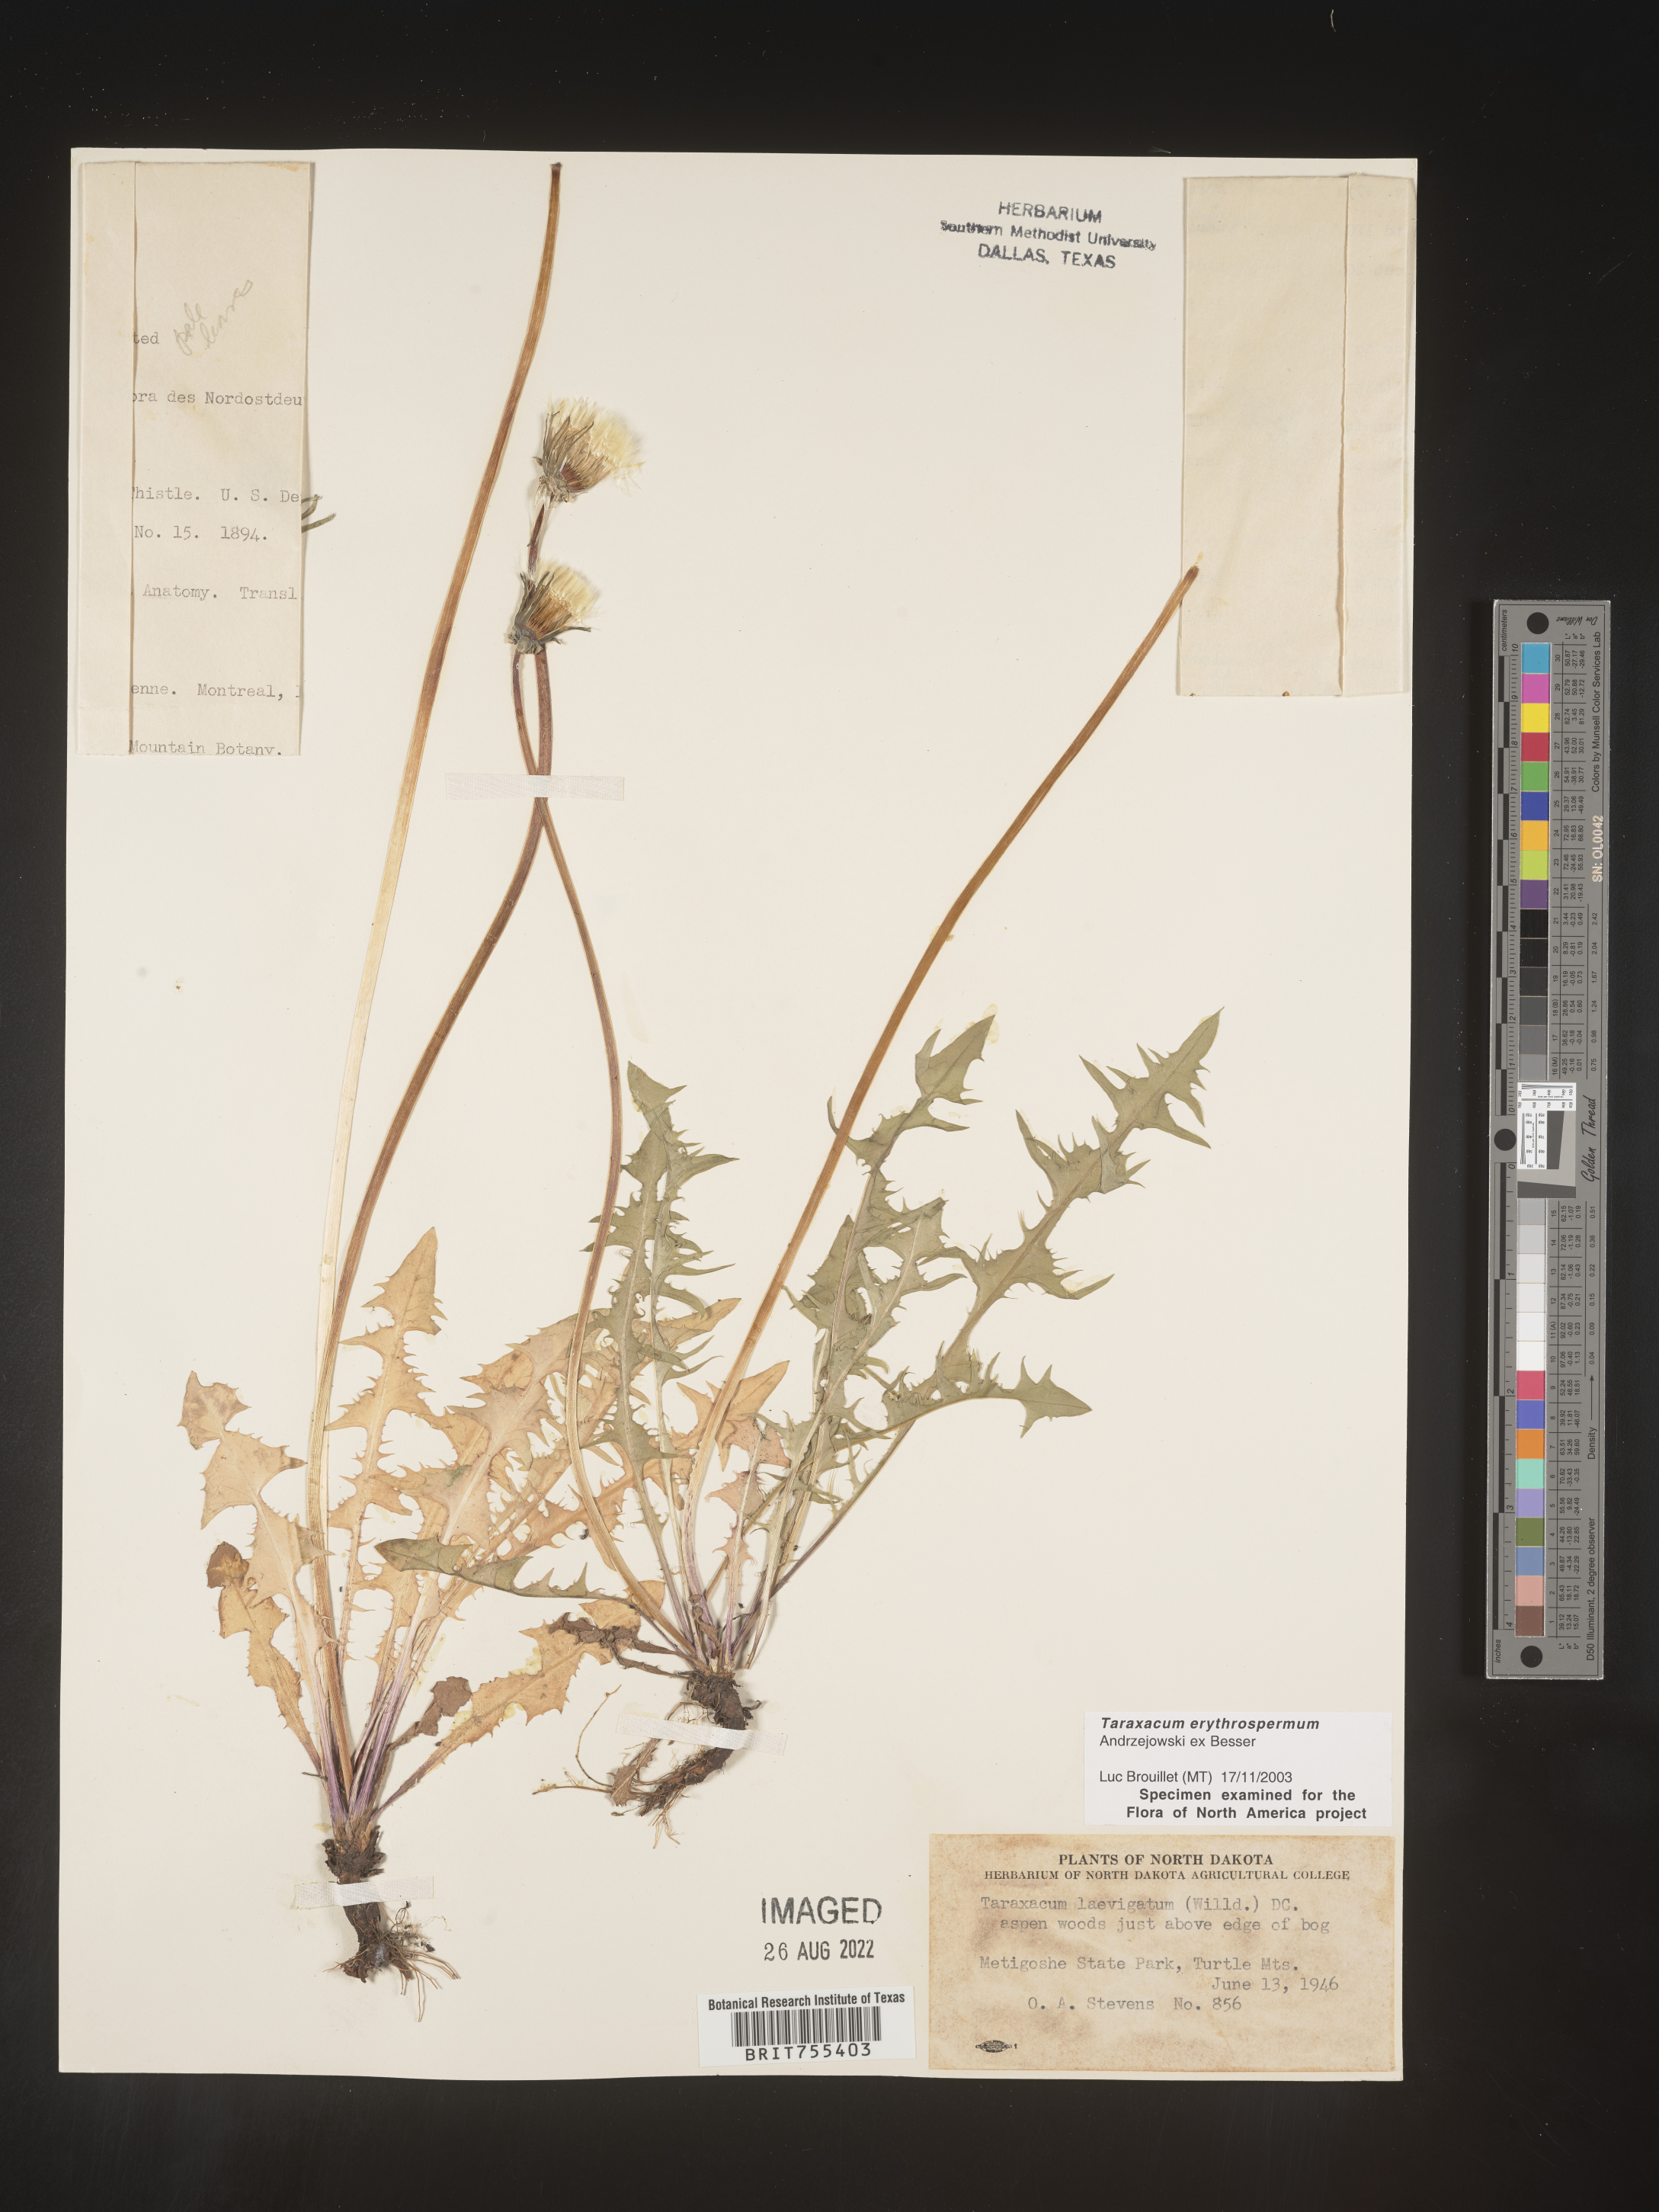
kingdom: Plantae
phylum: Tracheophyta
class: Magnoliopsida
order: Asterales
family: Asteraceae
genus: Taraxacum
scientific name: Taraxacum erythrospermum
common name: Rock dandelion
